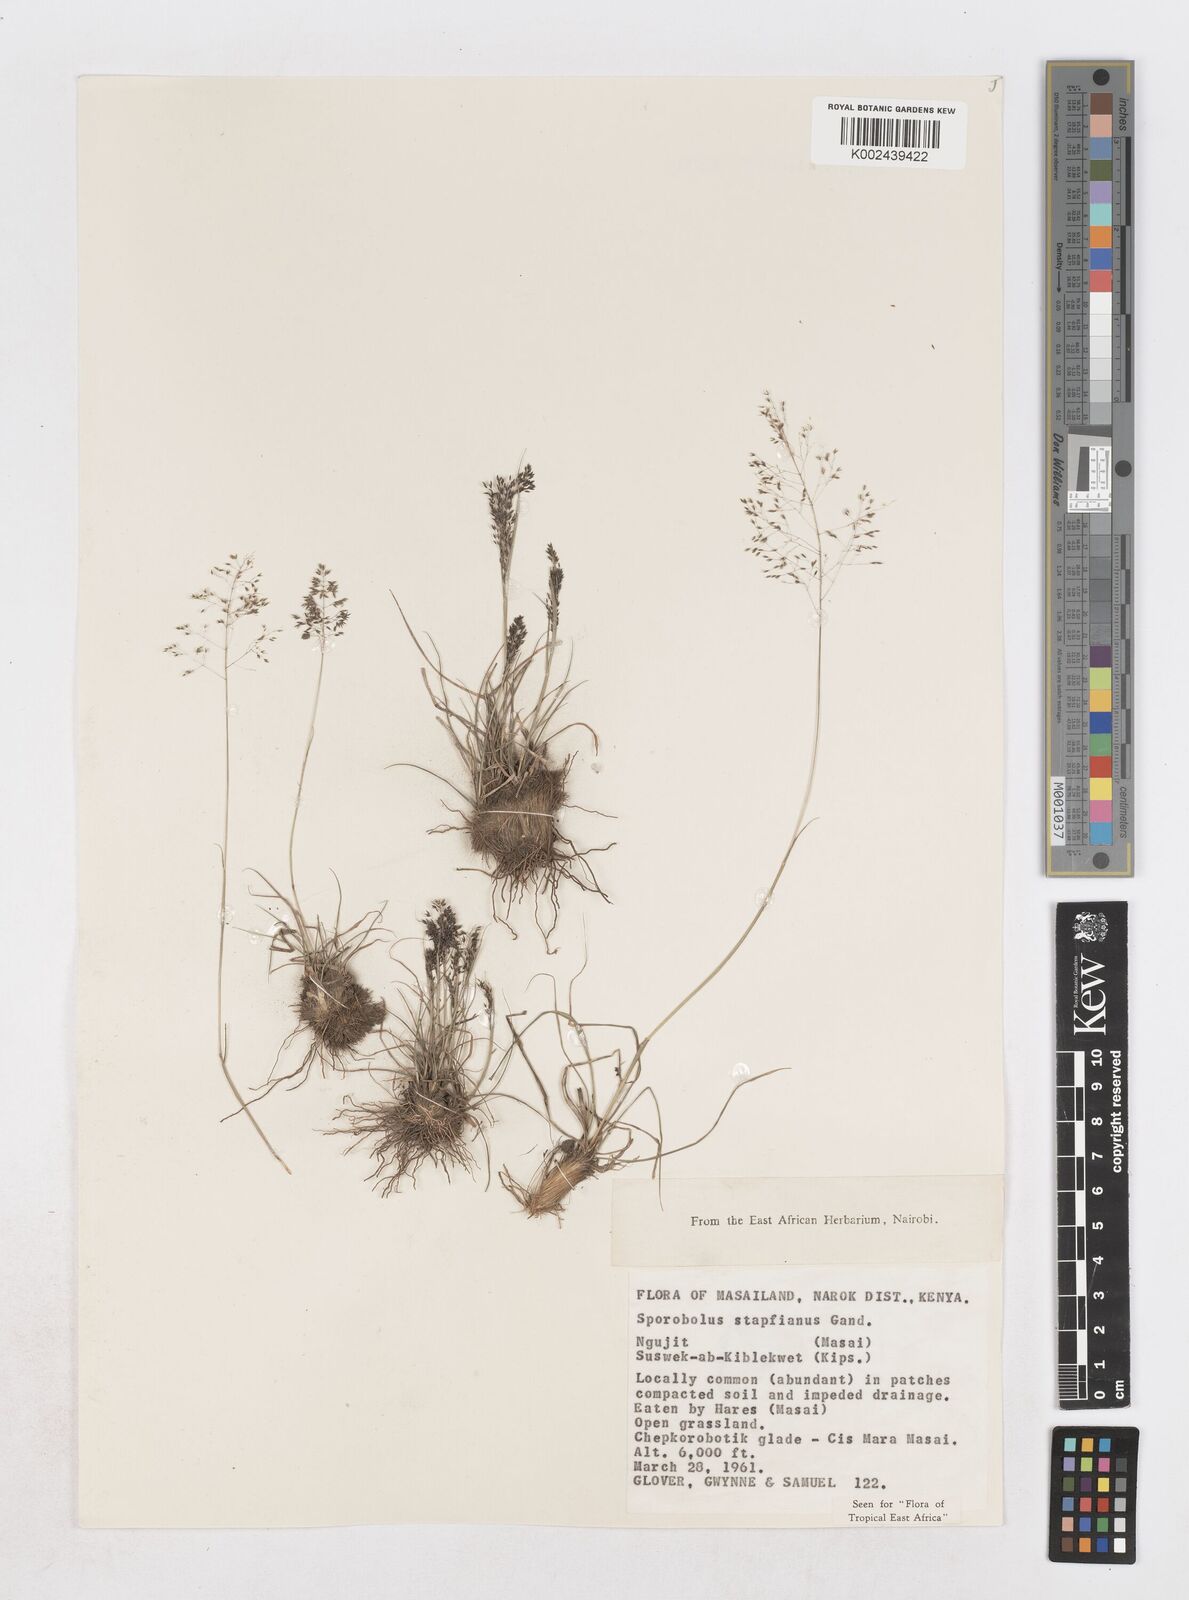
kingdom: Plantae
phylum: Tracheophyta
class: Liliopsida
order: Poales
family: Poaceae
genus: Sporobolus
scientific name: Sporobolus stapfianus
